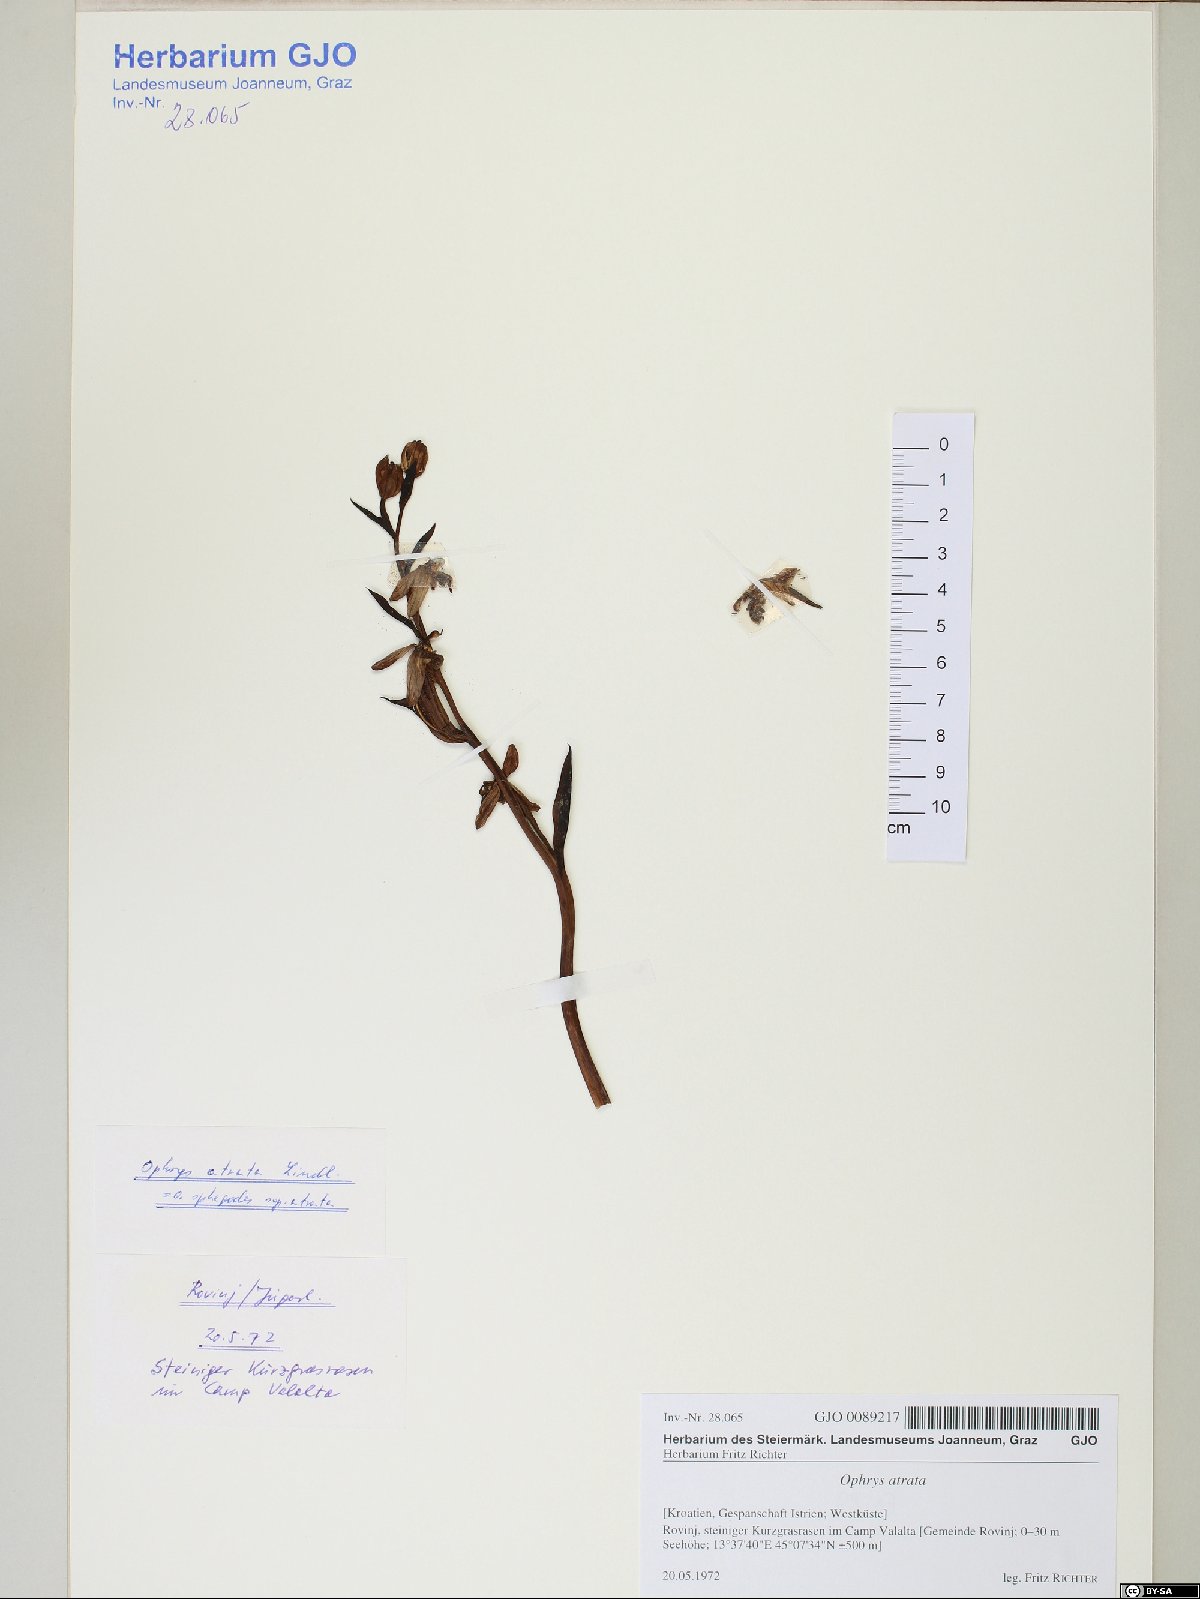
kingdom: Plantae
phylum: Tracheophyta
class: Liliopsida
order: Asparagales
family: Orchidaceae
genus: Ophrys
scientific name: Ophrys apifera
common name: Bee orchid
